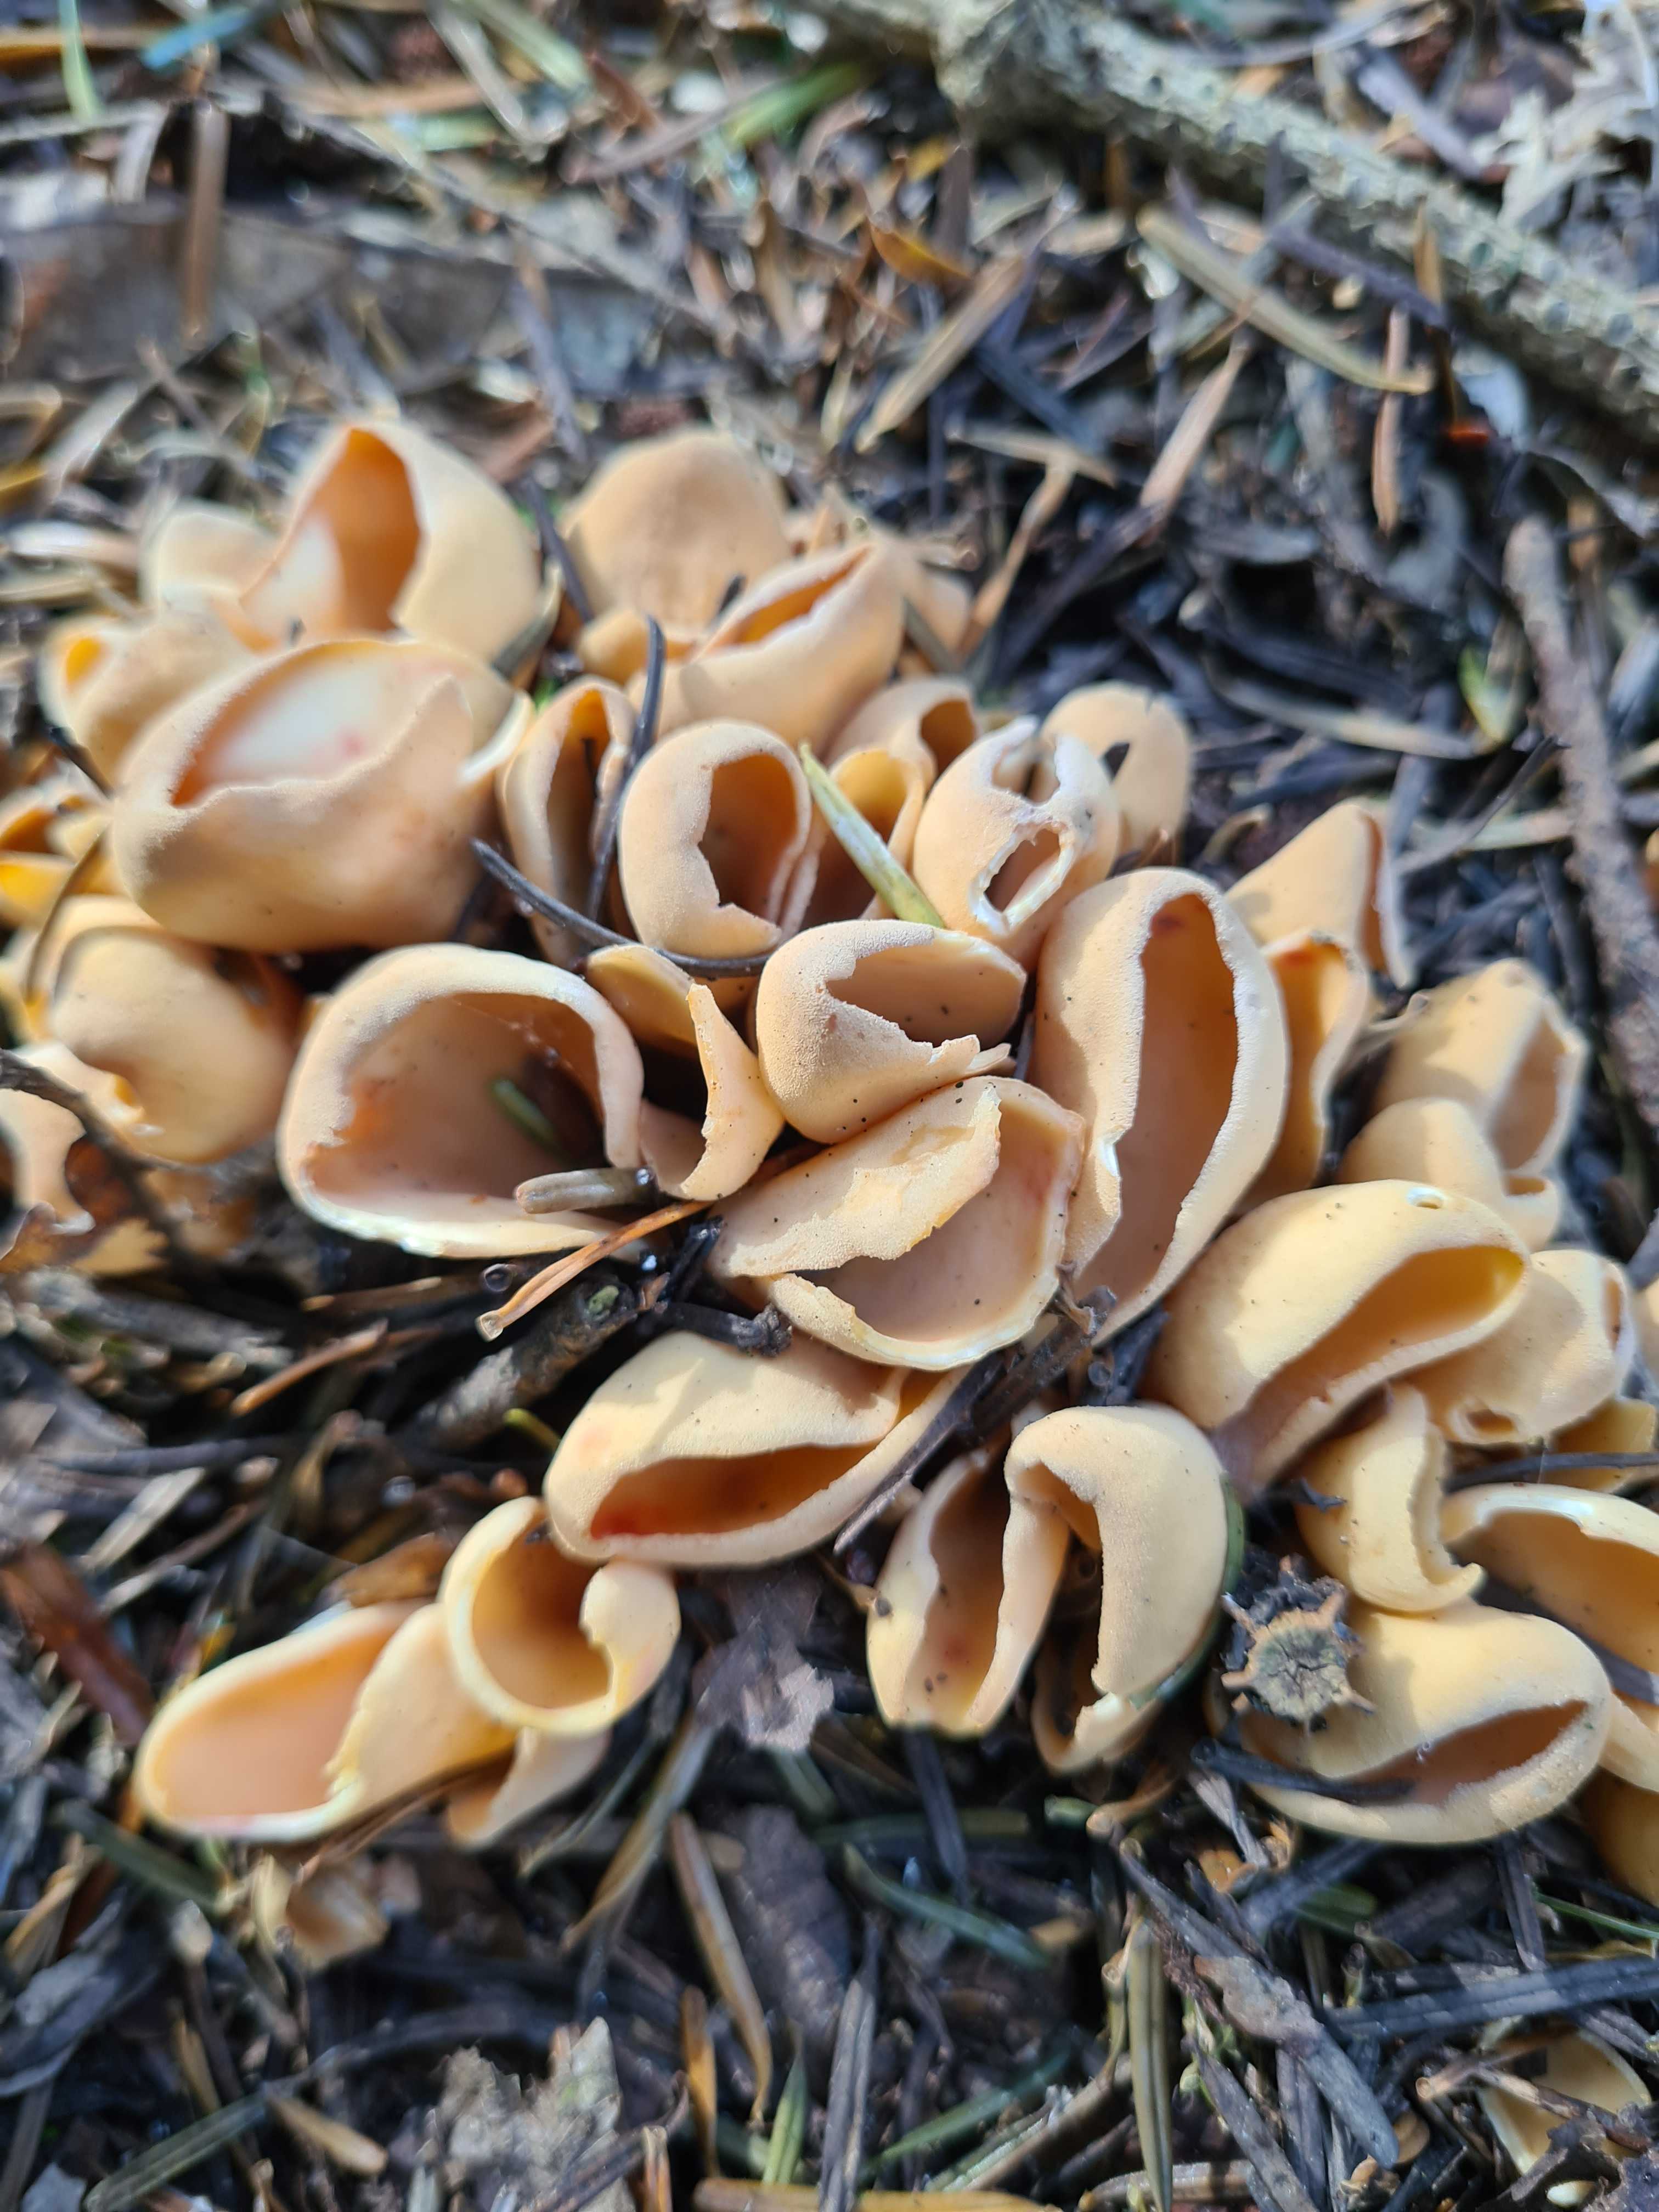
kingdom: Fungi
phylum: Ascomycota
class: Pezizomycetes
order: Pezizales
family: Otideaceae
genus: Otidea
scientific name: Otidea onotica
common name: æsel-ørebæger
